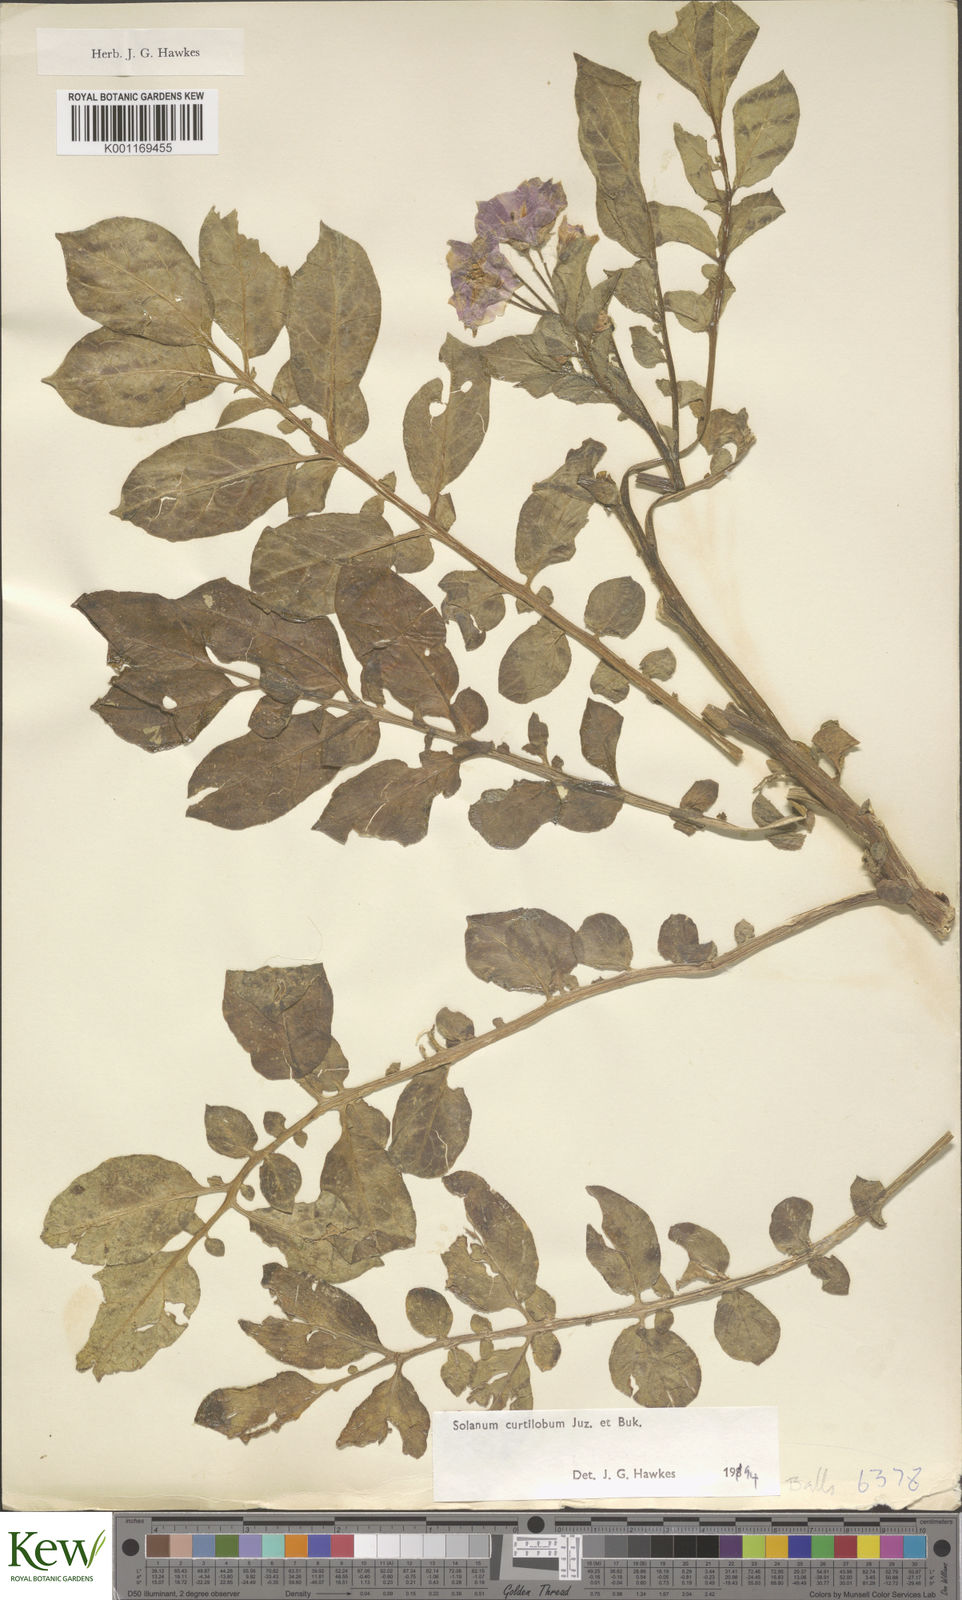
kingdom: Plantae
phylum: Tracheophyta
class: Magnoliopsida
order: Solanales
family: Solanaceae
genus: Solanum
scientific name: Solanum curtilobum
